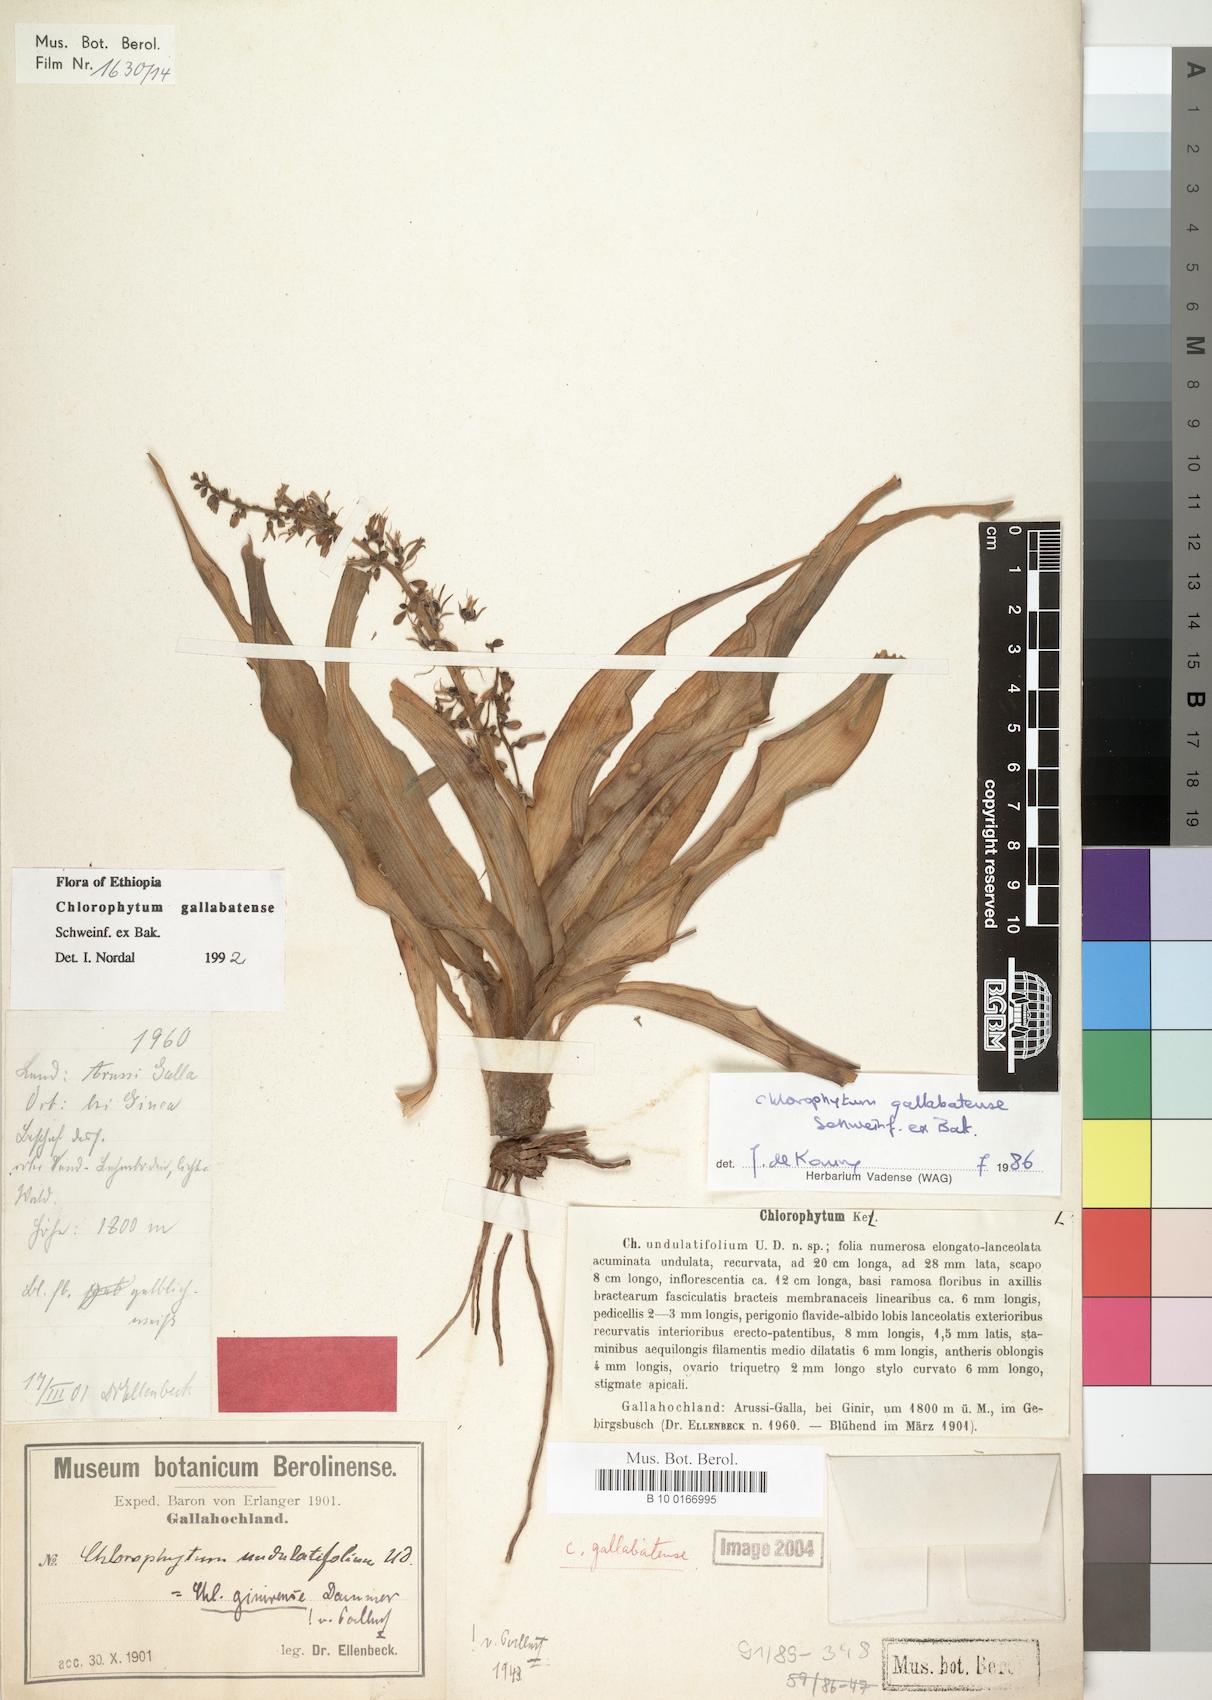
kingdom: Plantae
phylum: Tracheophyta
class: Liliopsida
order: Asparagales
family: Asparagaceae
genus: Chlorophytum
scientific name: Chlorophytum gallabatense
